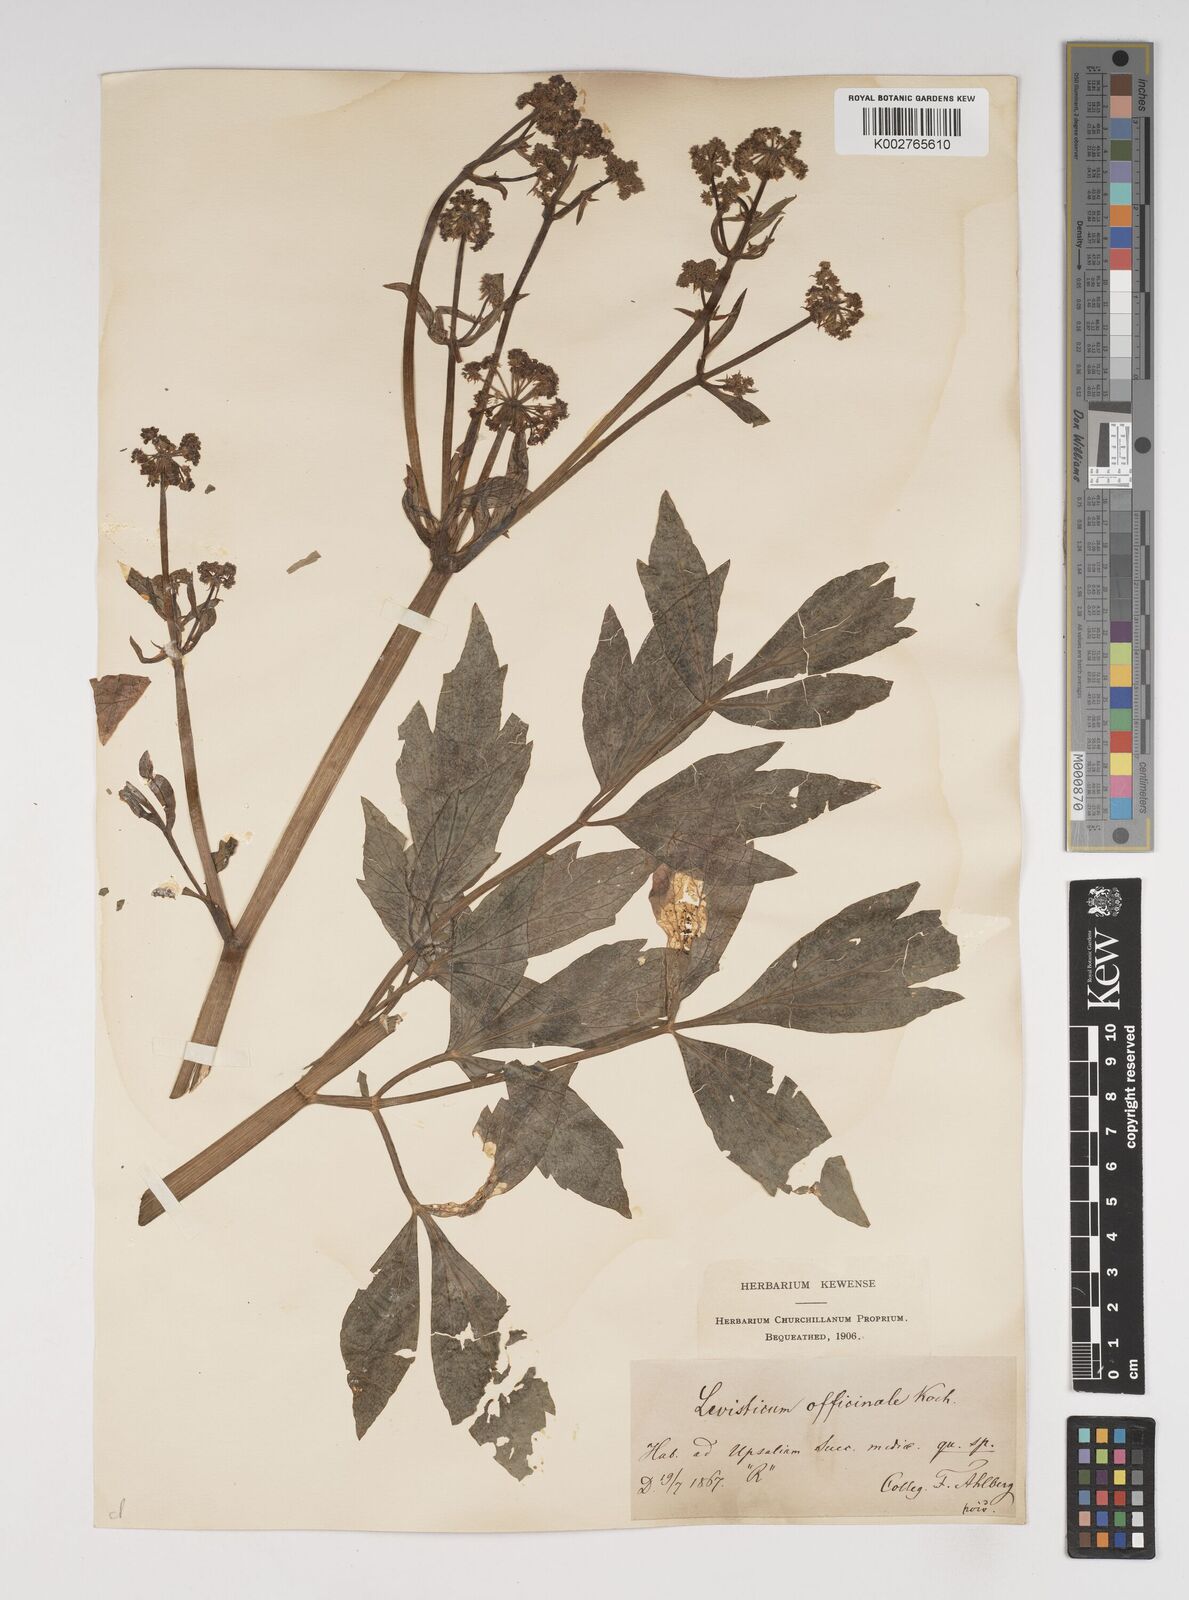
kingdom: Plantae
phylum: Tracheophyta
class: Magnoliopsida
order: Apiales
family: Apiaceae
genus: Levisticum
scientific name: Levisticum officinale
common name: Lovage
